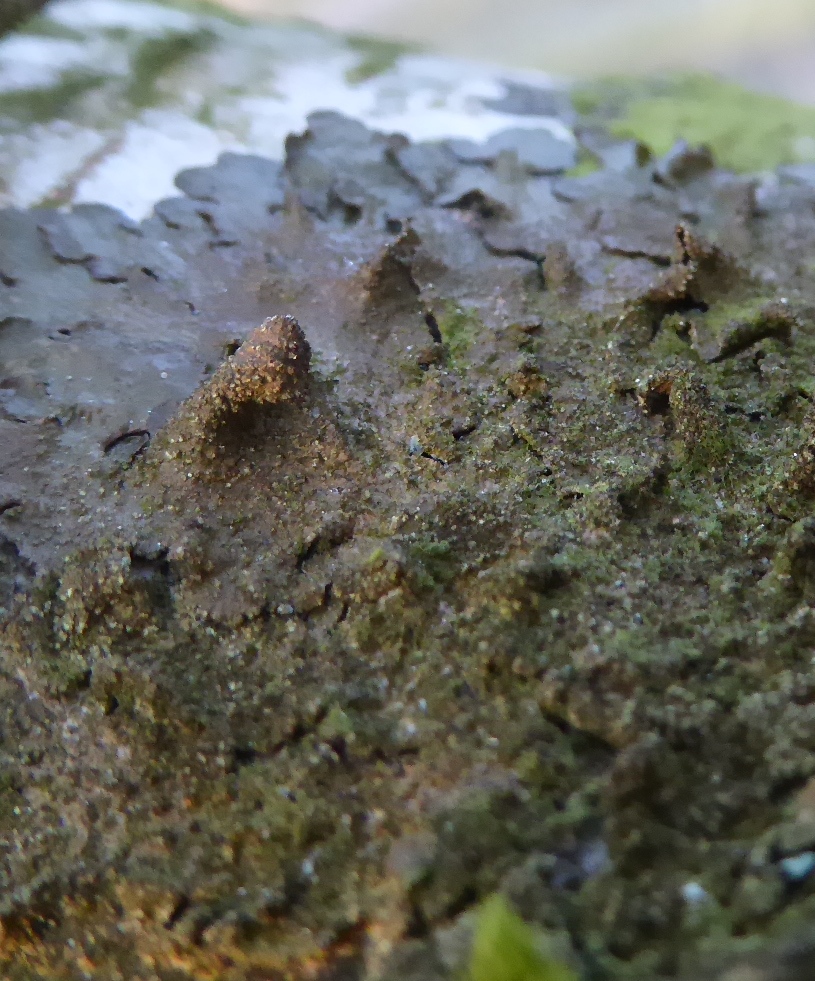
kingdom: Fungi
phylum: Ascomycota
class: Lecanoromycetes
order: Lecanorales
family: Parmeliaceae
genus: Melanelixia
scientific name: Melanelixia subaurifera
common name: guldpudret skållav
